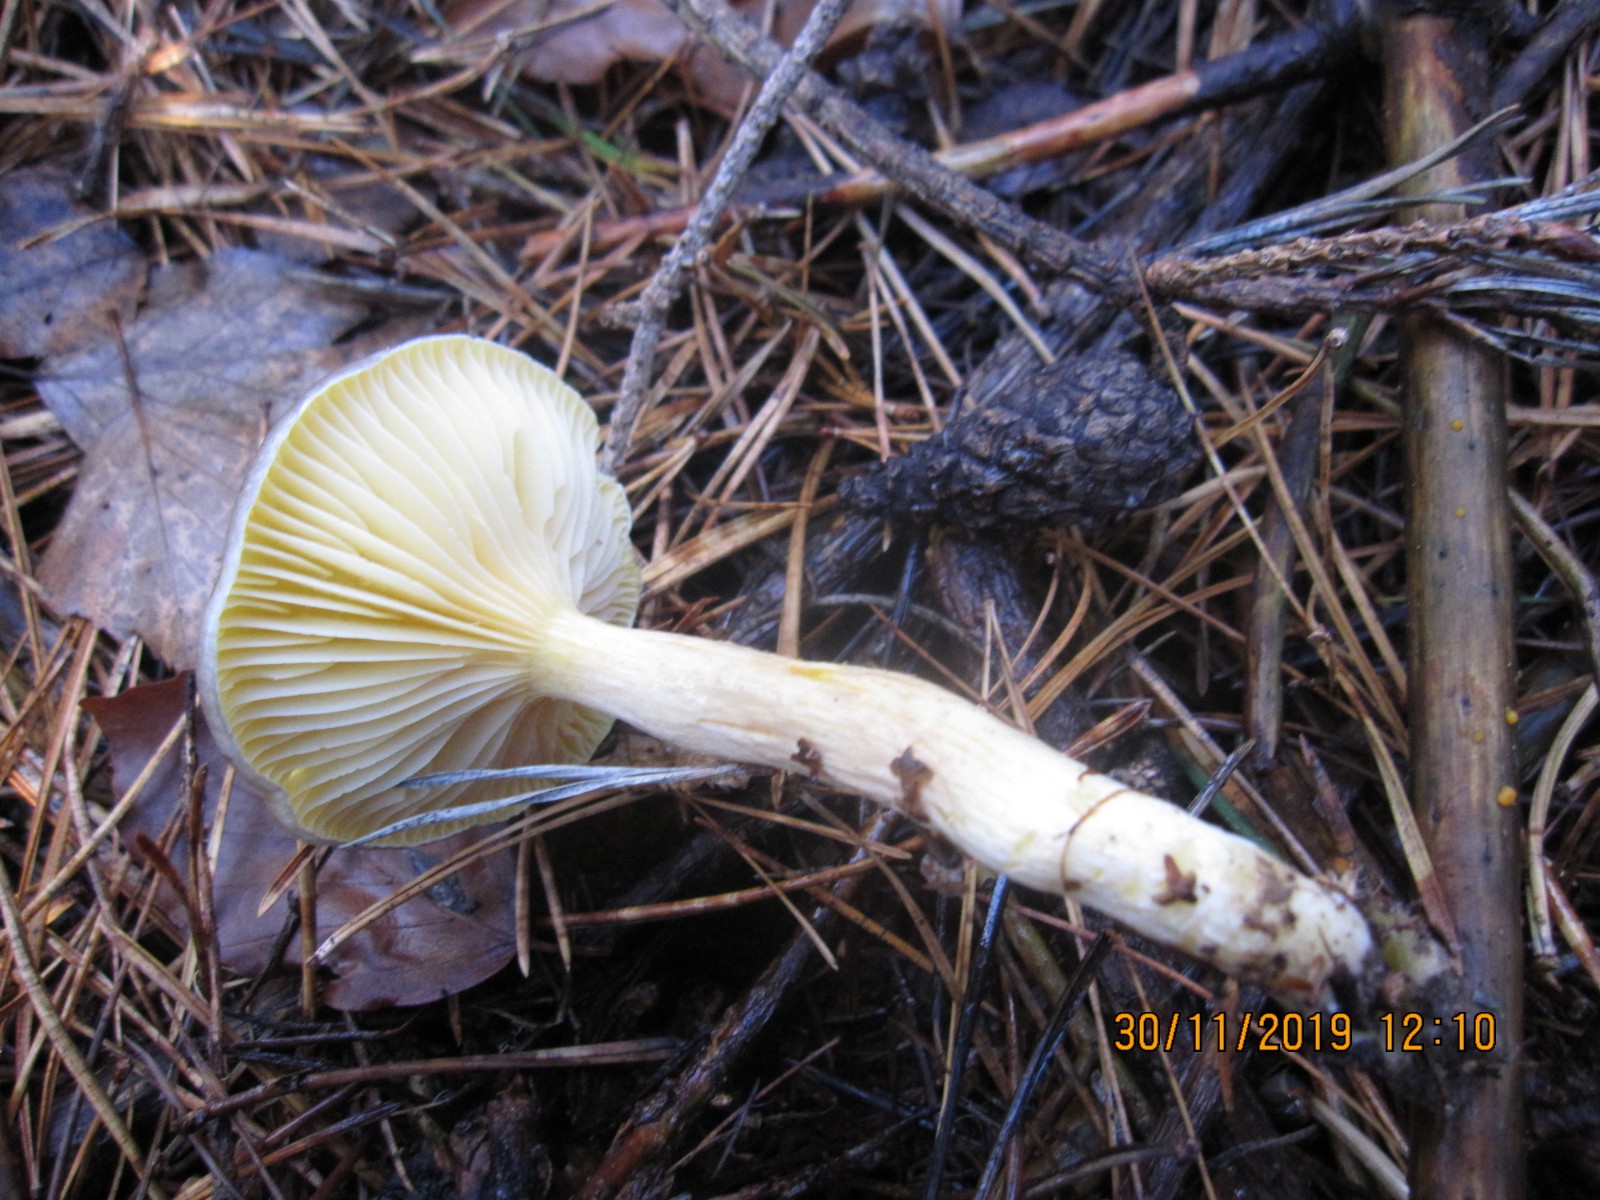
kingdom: Fungi
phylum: Basidiomycota
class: Agaricomycetes
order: Agaricales
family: Hygrophoraceae
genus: Hygrophorus
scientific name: Hygrophorus hypothejus
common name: frost-sneglehat
